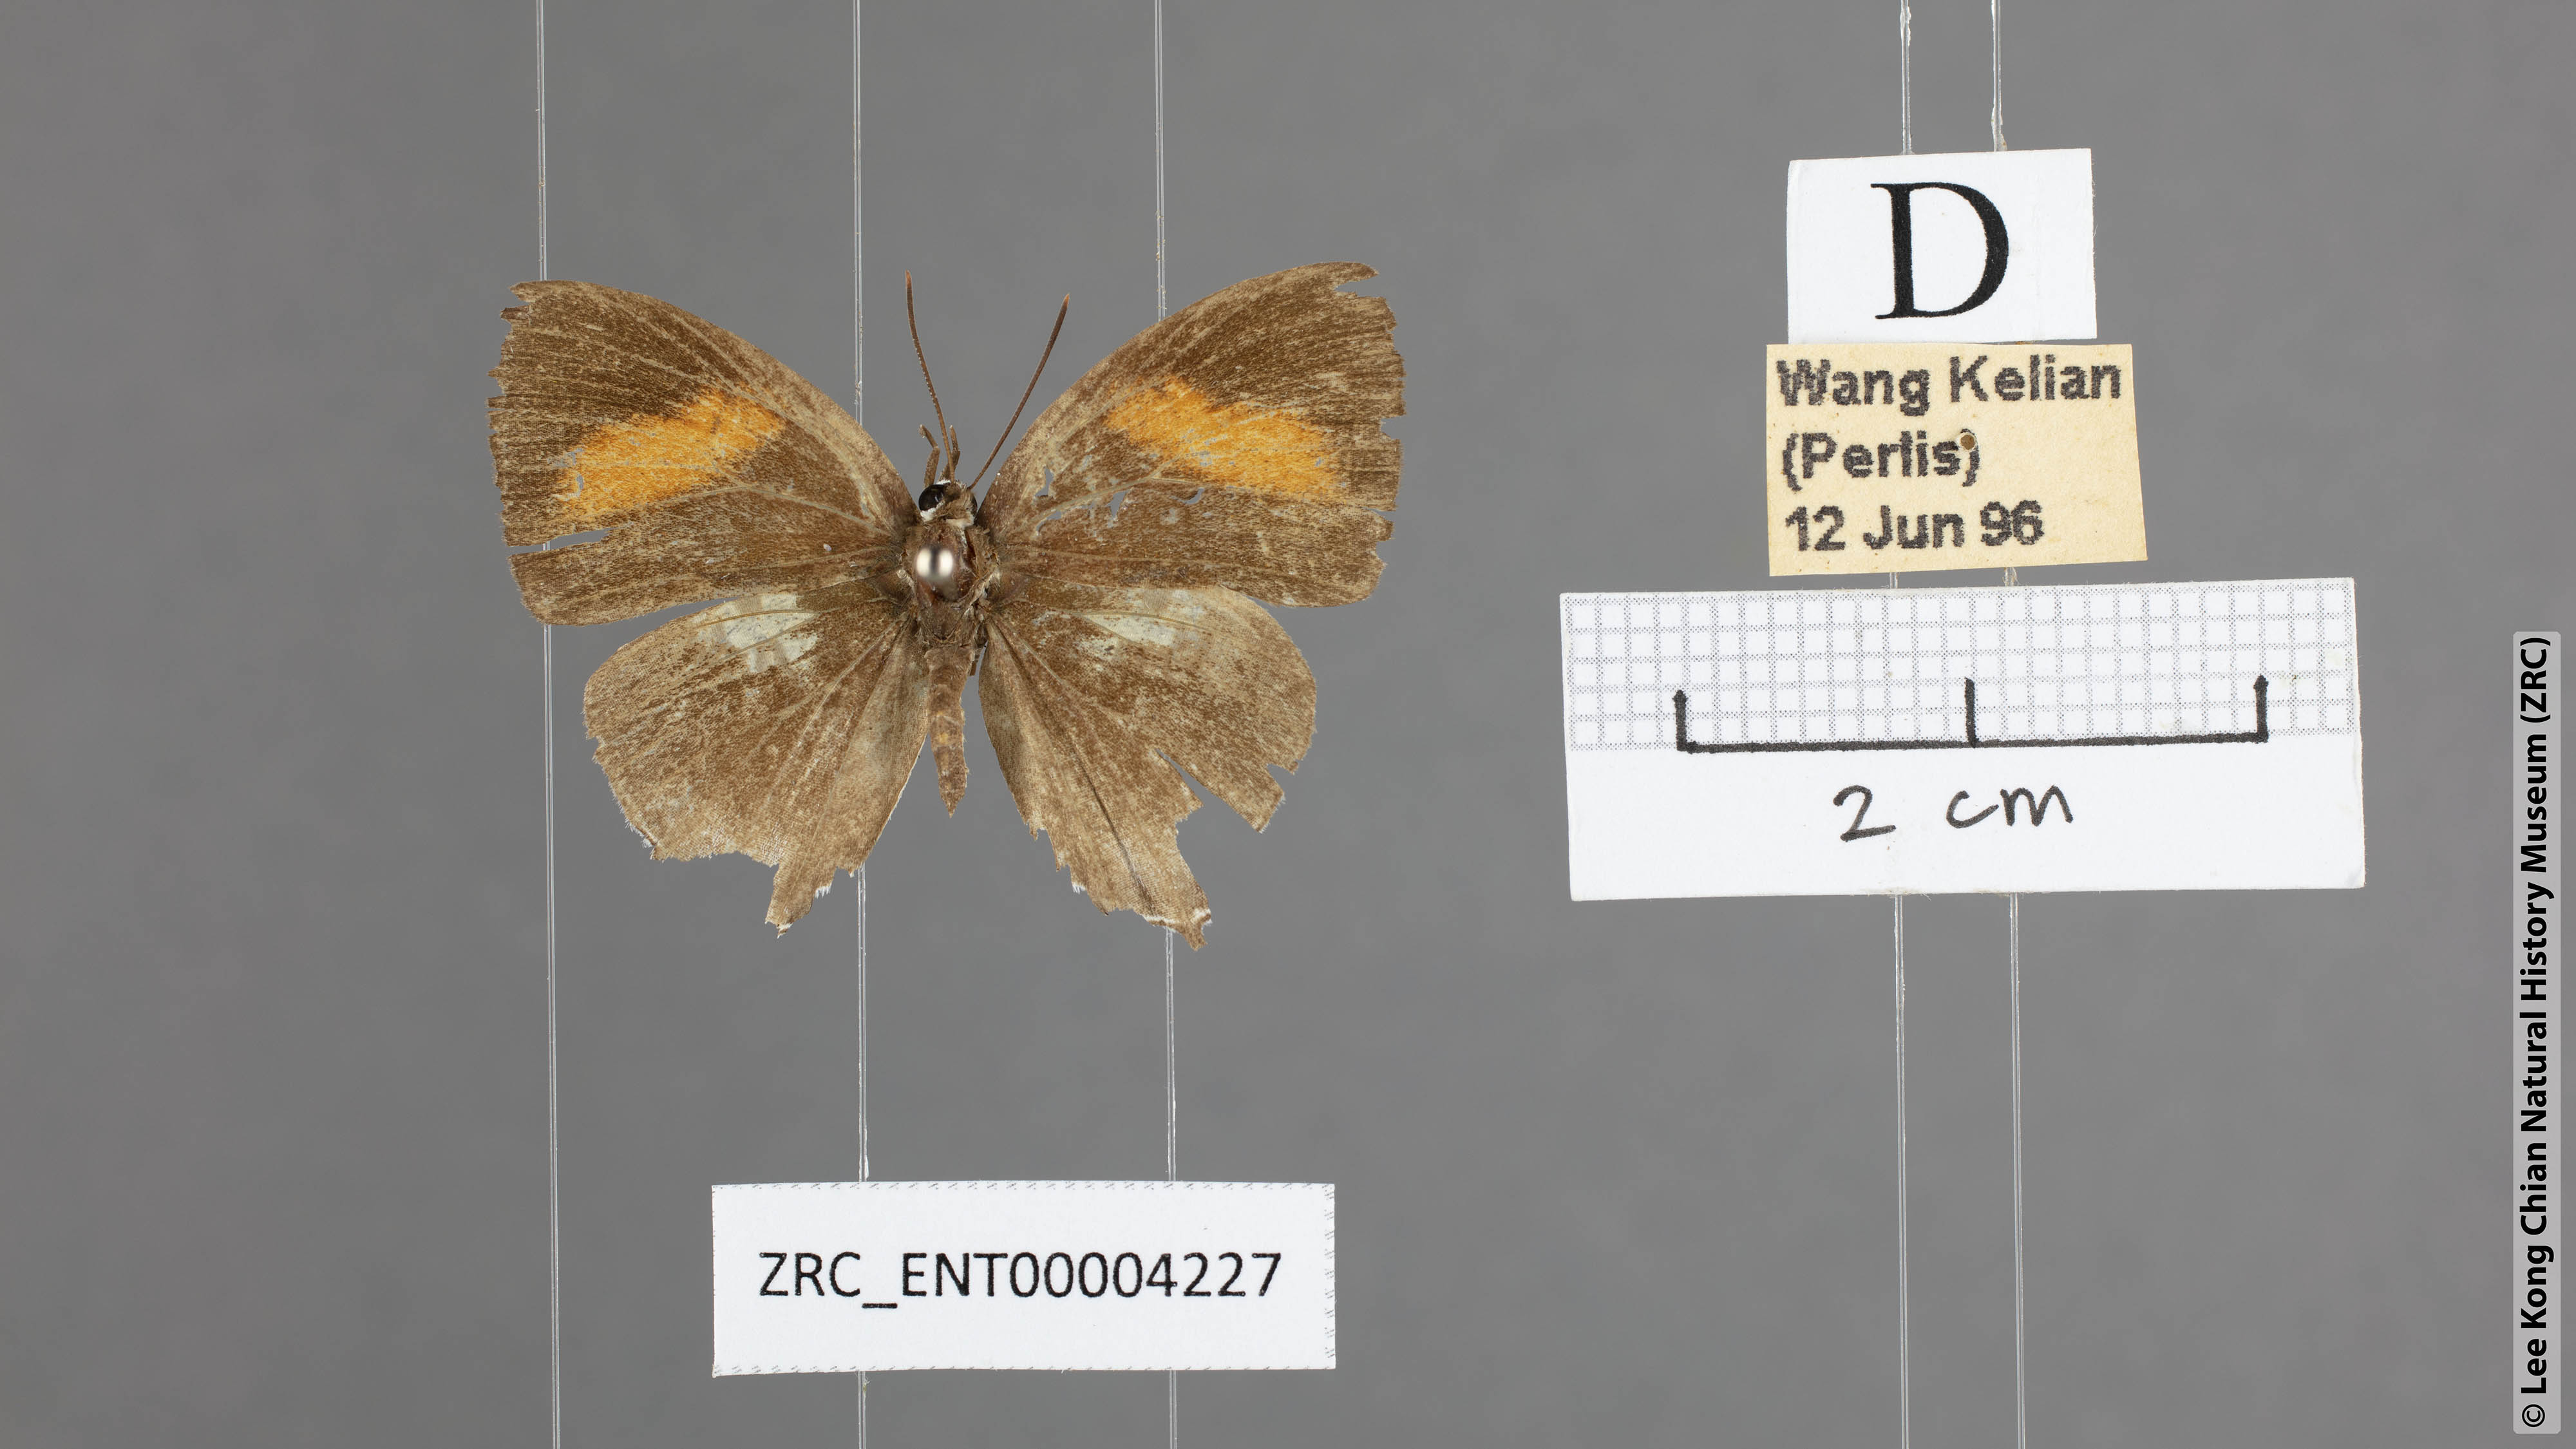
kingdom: Animalia
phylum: Arthropoda
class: Insecta
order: Lepidoptera
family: Lycaenidae
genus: Drupadia
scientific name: Drupadia theda
